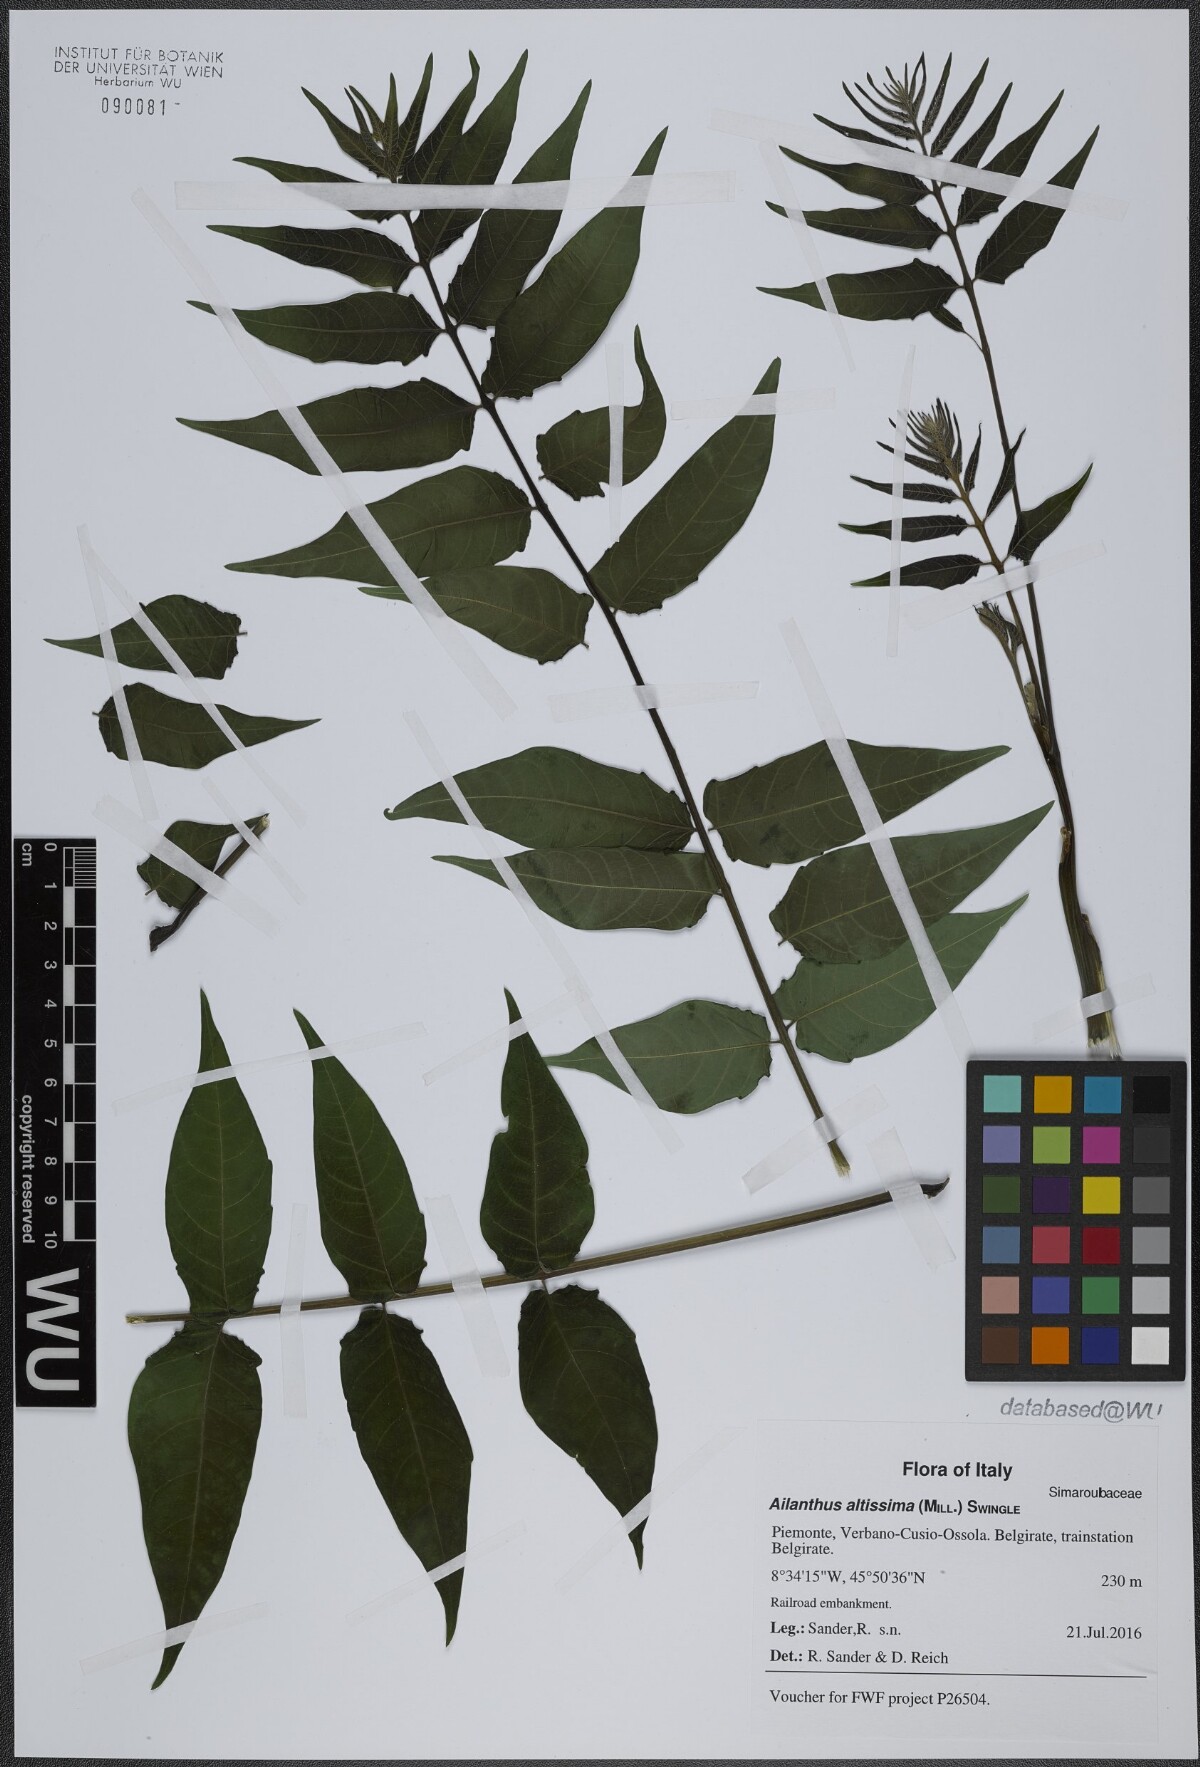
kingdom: Plantae
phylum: Tracheophyta
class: Magnoliopsida
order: Sapindales
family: Simaroubaceae
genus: Ailanthus
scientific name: Ailanthus altissima
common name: Tree-of-heaven
